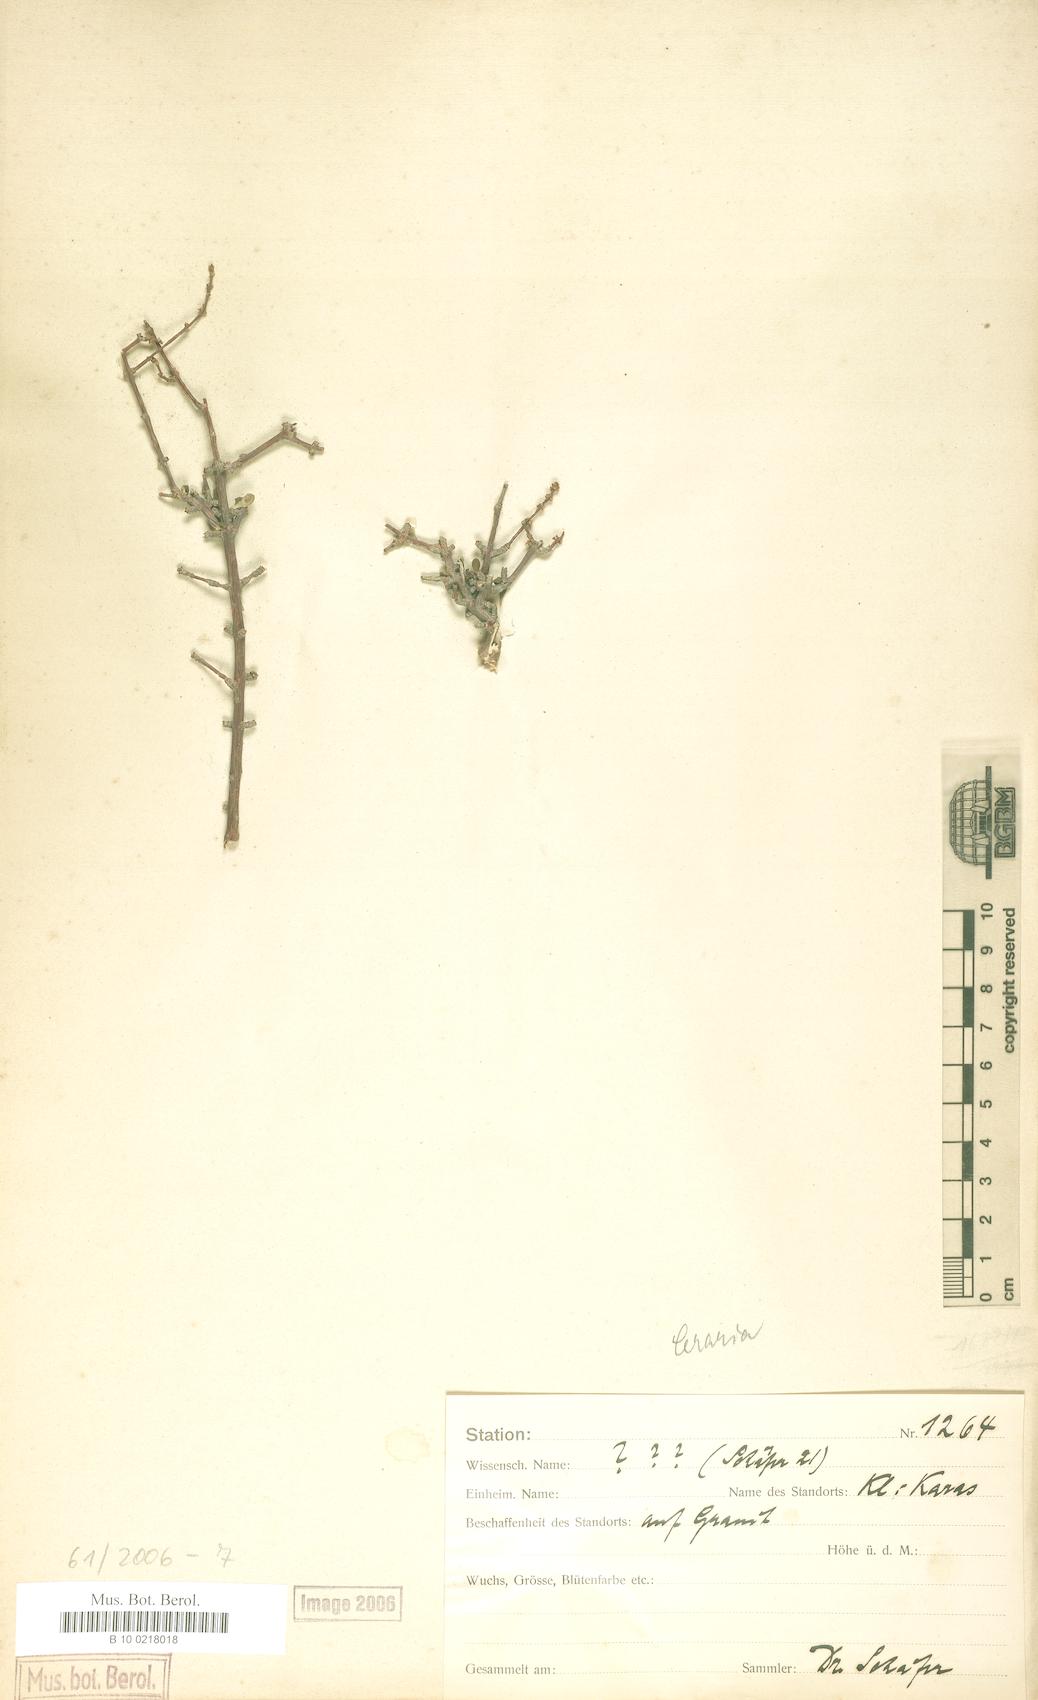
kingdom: Plantae
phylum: Tracheophyta
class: Magnoliopsida
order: Caryophyllales
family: Didiereaceae
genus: Portulacaria
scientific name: Portulacaria fruticulosa
